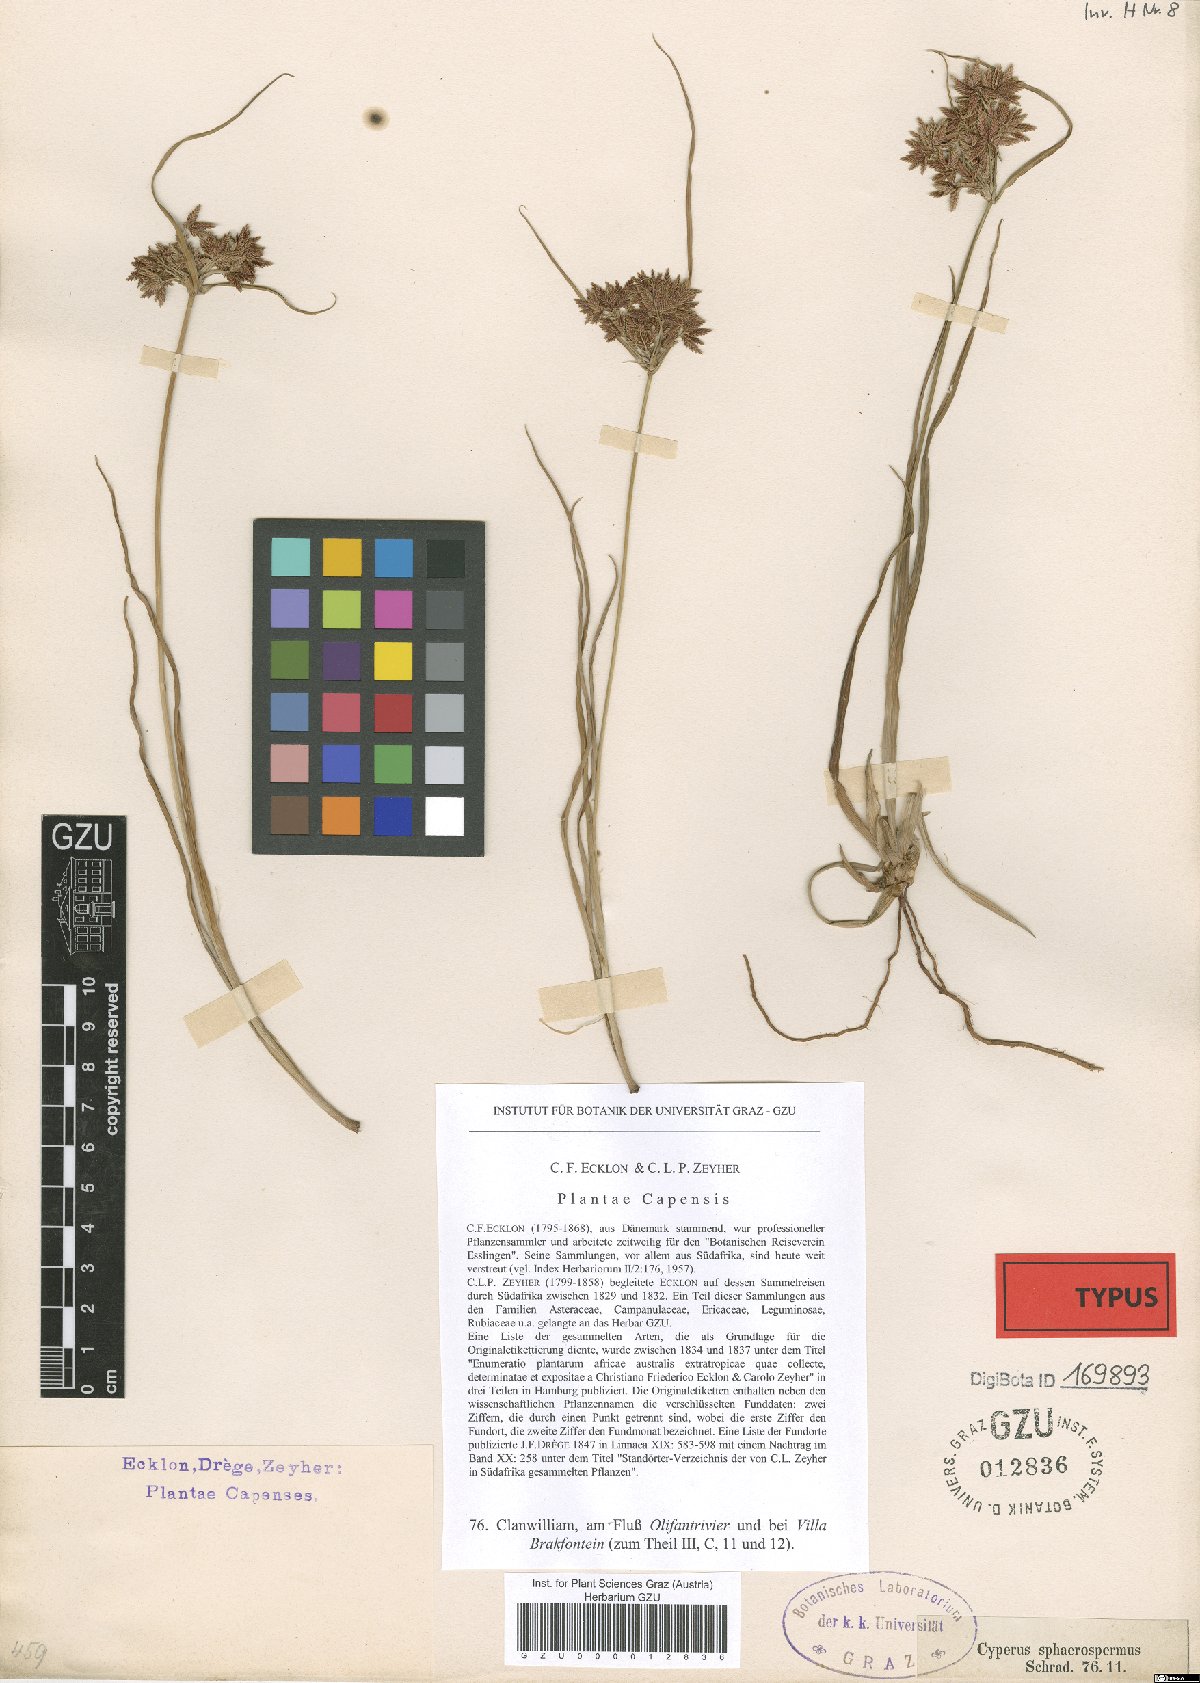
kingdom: Plantae
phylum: Tracheophyta
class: Liliopsida
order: Poales
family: Cyperaceae
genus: Cyperus
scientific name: Cyperus sphaerospermus
